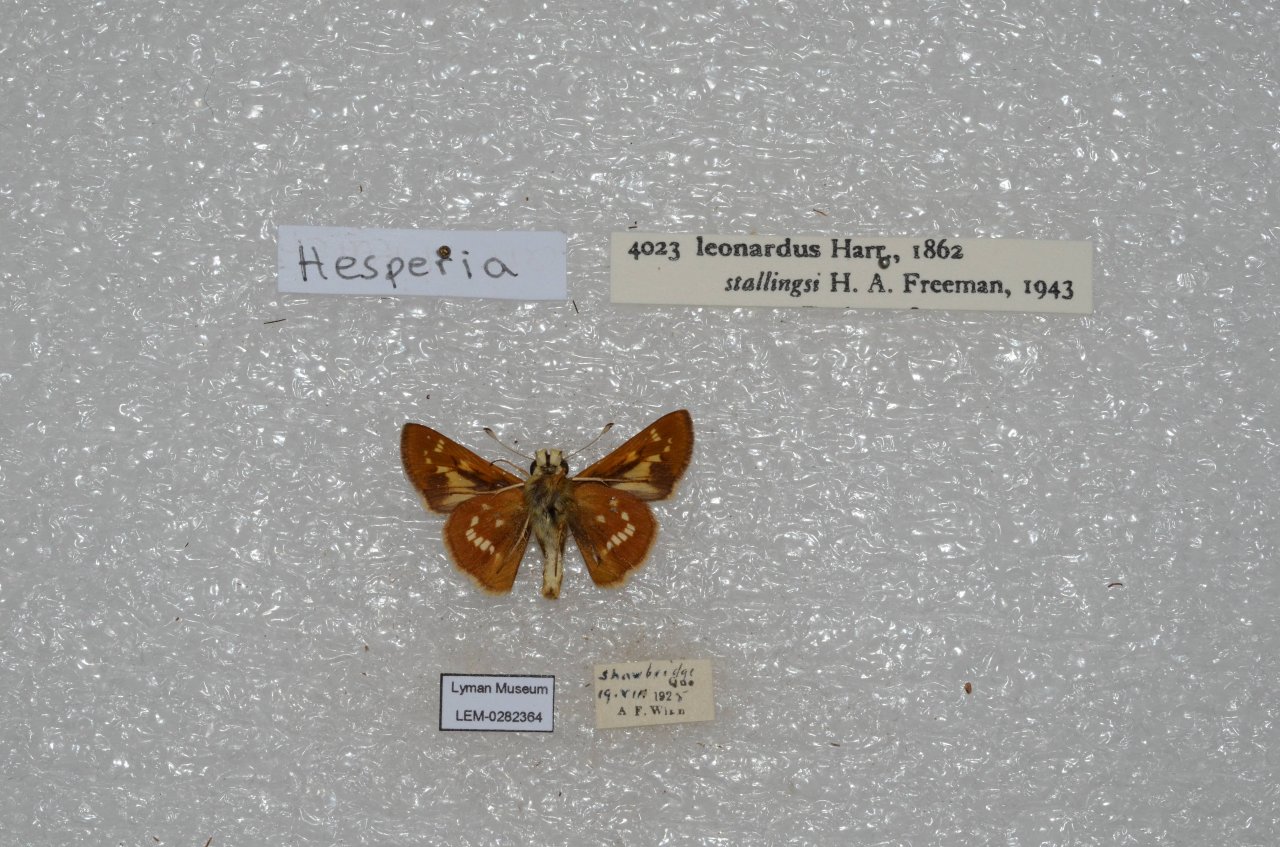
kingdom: Animalia
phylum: Arthropoda
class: Insecta
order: Lepidoptera
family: Hesperiidae
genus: Hesperia
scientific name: Hesperia leonardus
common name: Leonard's Skipper
